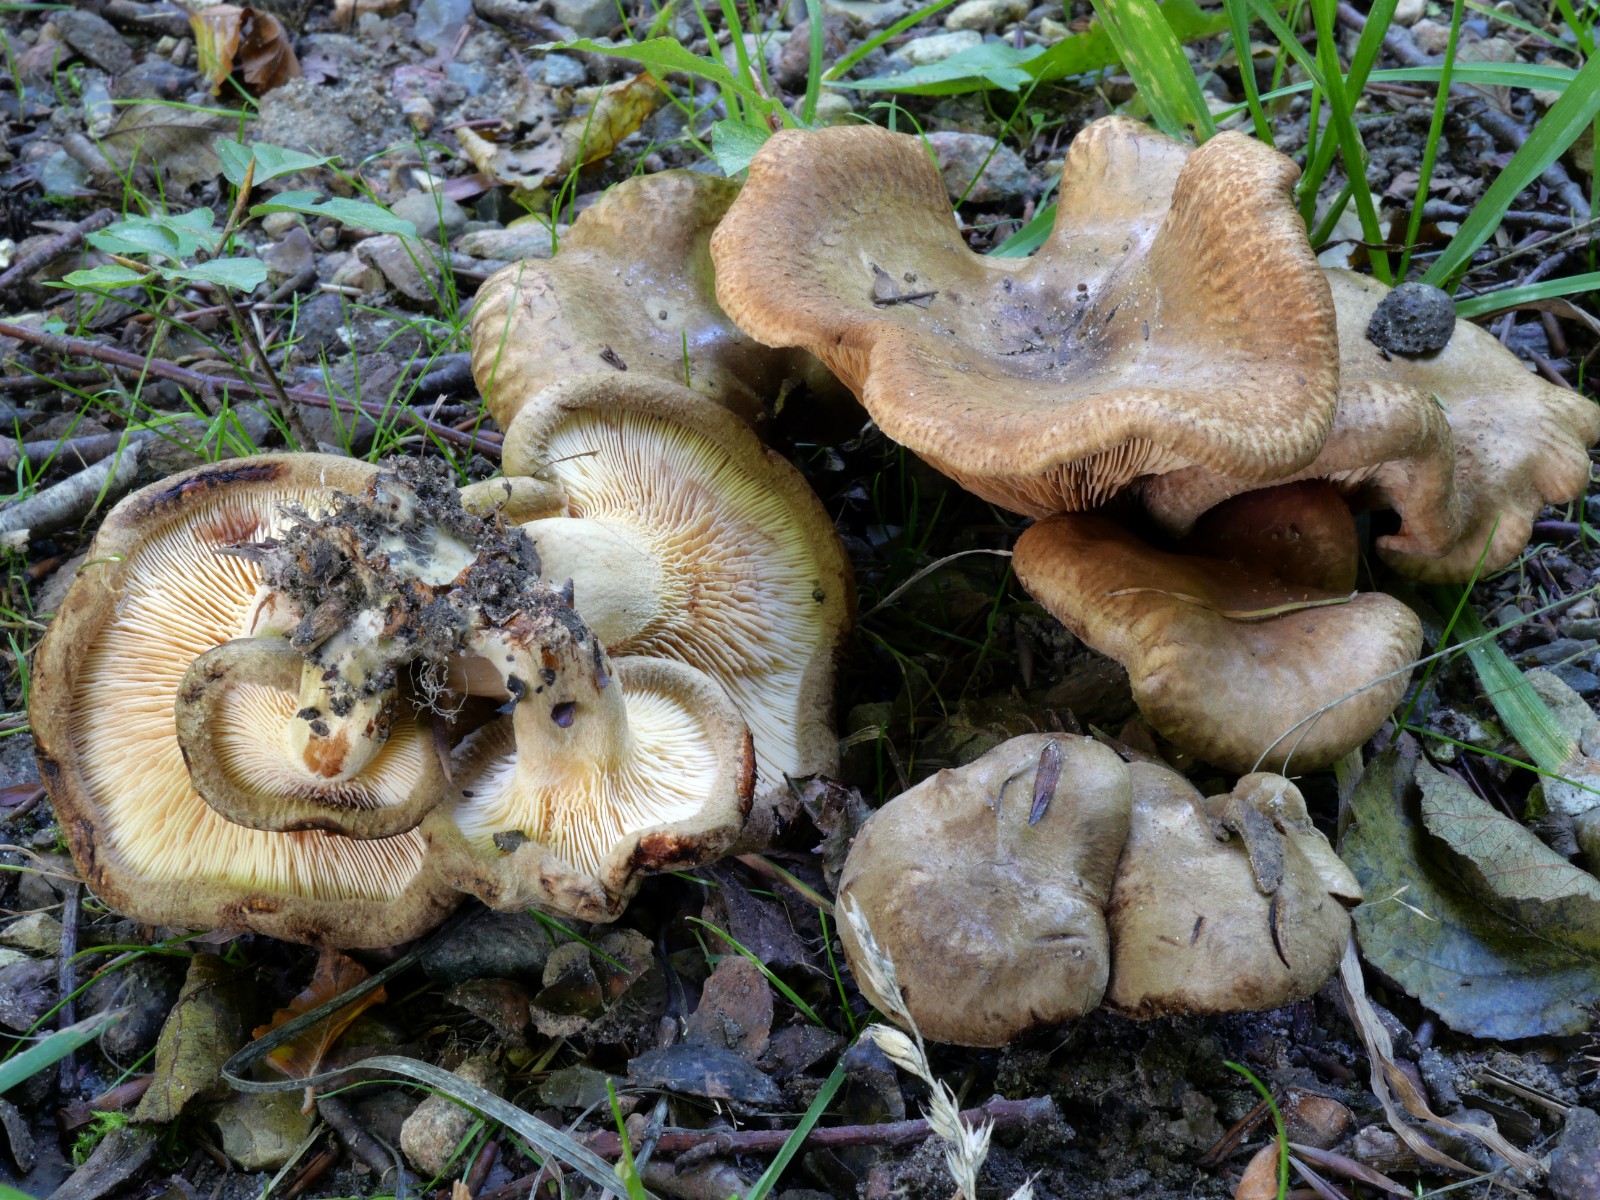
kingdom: Fungi
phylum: Basidiomycota
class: Agaricomycetes
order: Boletales
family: Paxillaceae
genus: Paxillus
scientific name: Paxillus rubicundulus
